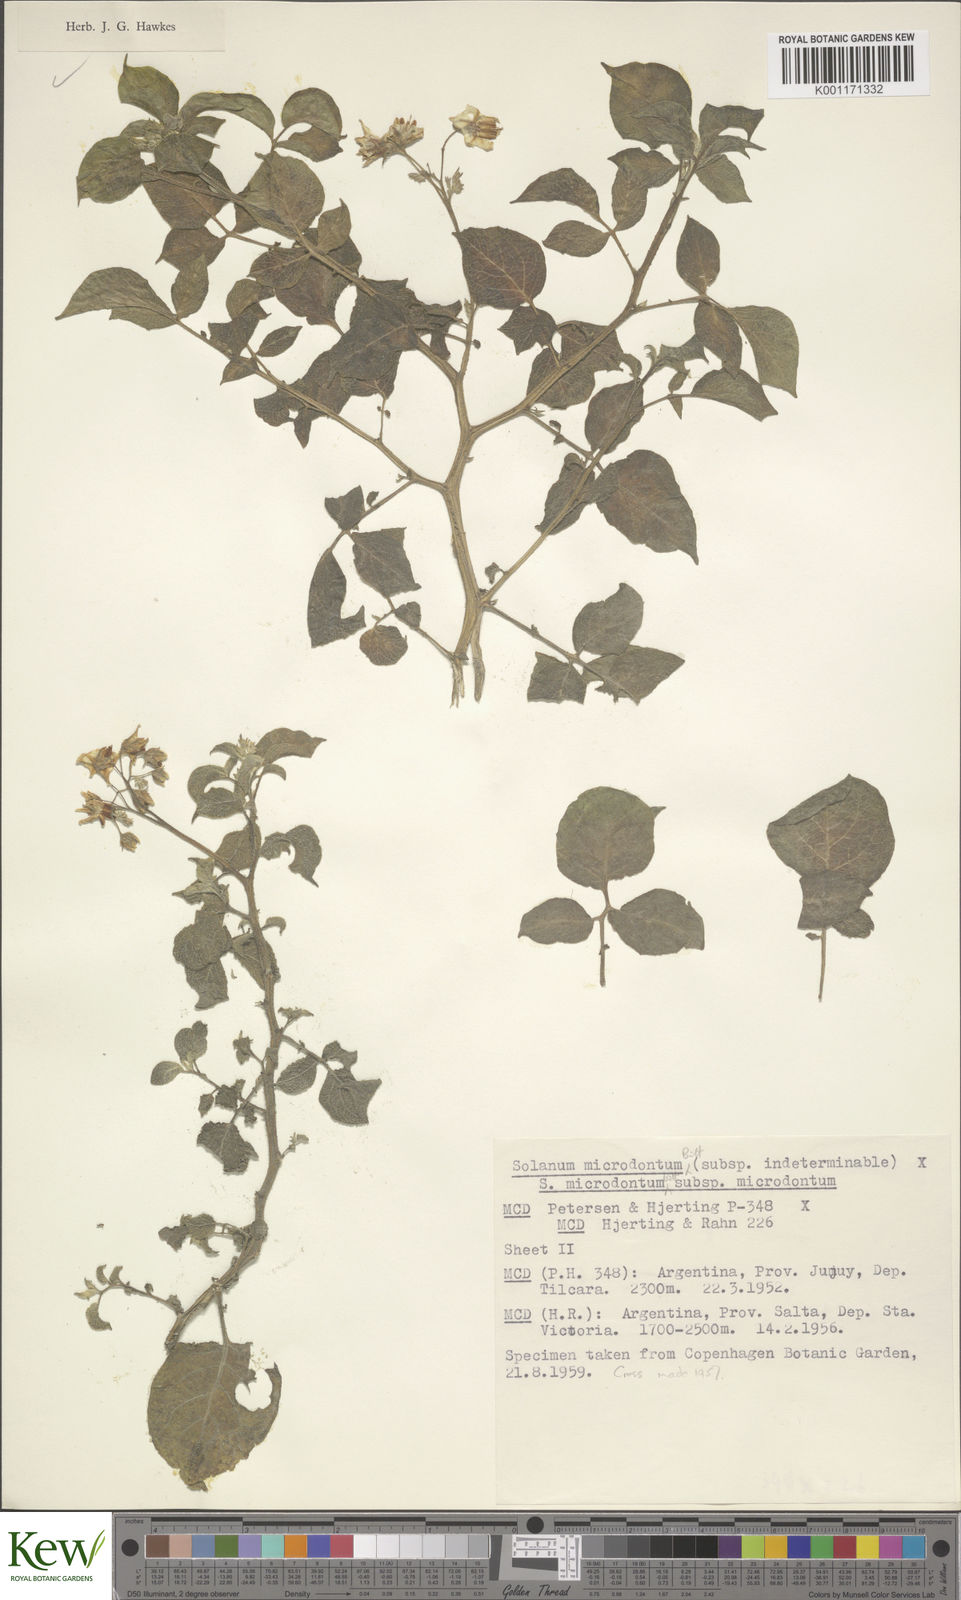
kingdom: Plantae
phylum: Tracheophyta
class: Magnoliopsida
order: Solanales
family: Solanaceae
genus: Solanum
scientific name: Solanum microdontum
